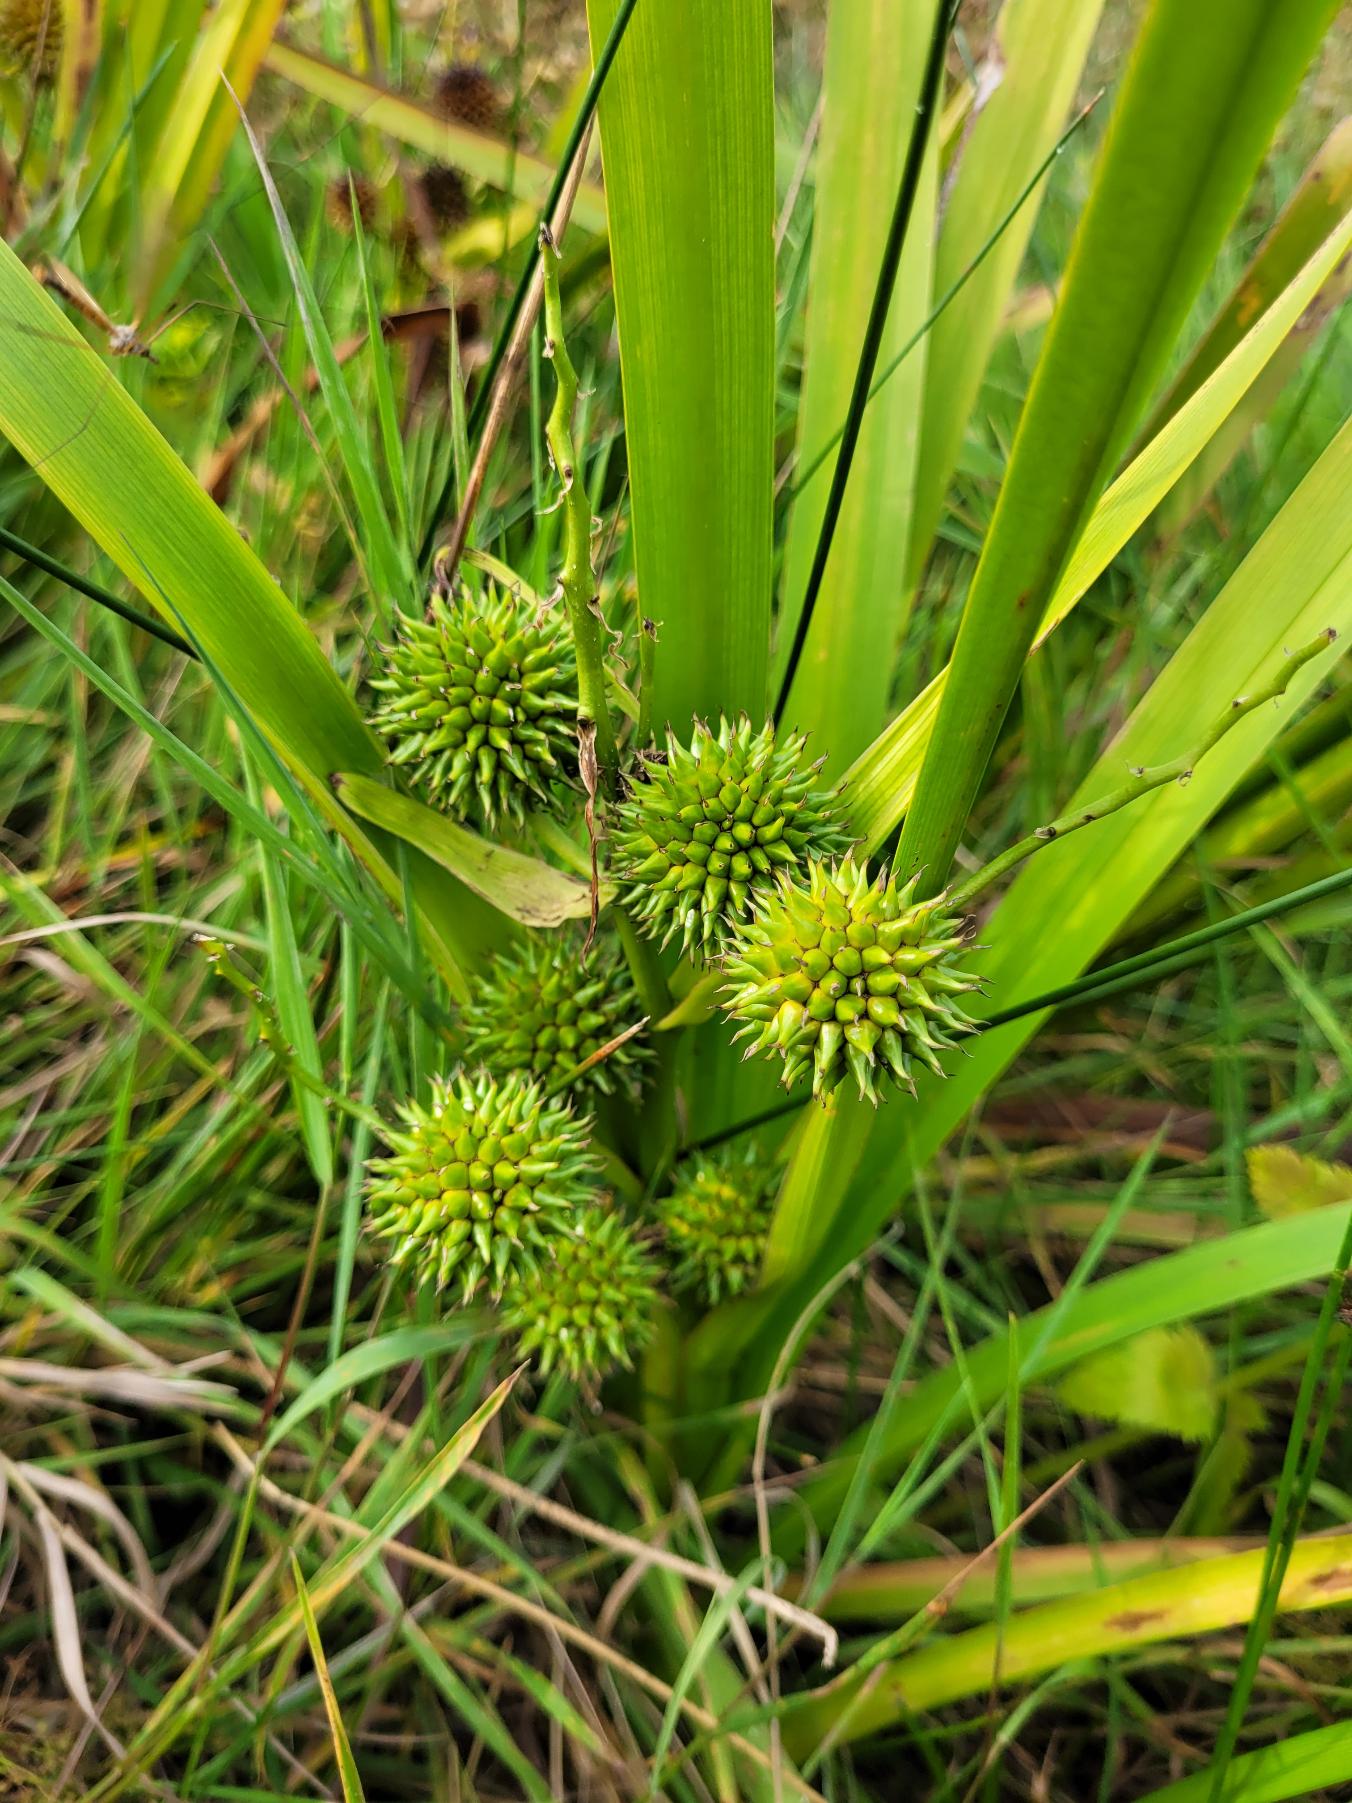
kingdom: Plantae
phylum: Tracheophyta
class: Liliopsida
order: Poales
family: Typhaceae
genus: Sparganium
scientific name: Sparganium erectum
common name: Grenet pindsvineknop
